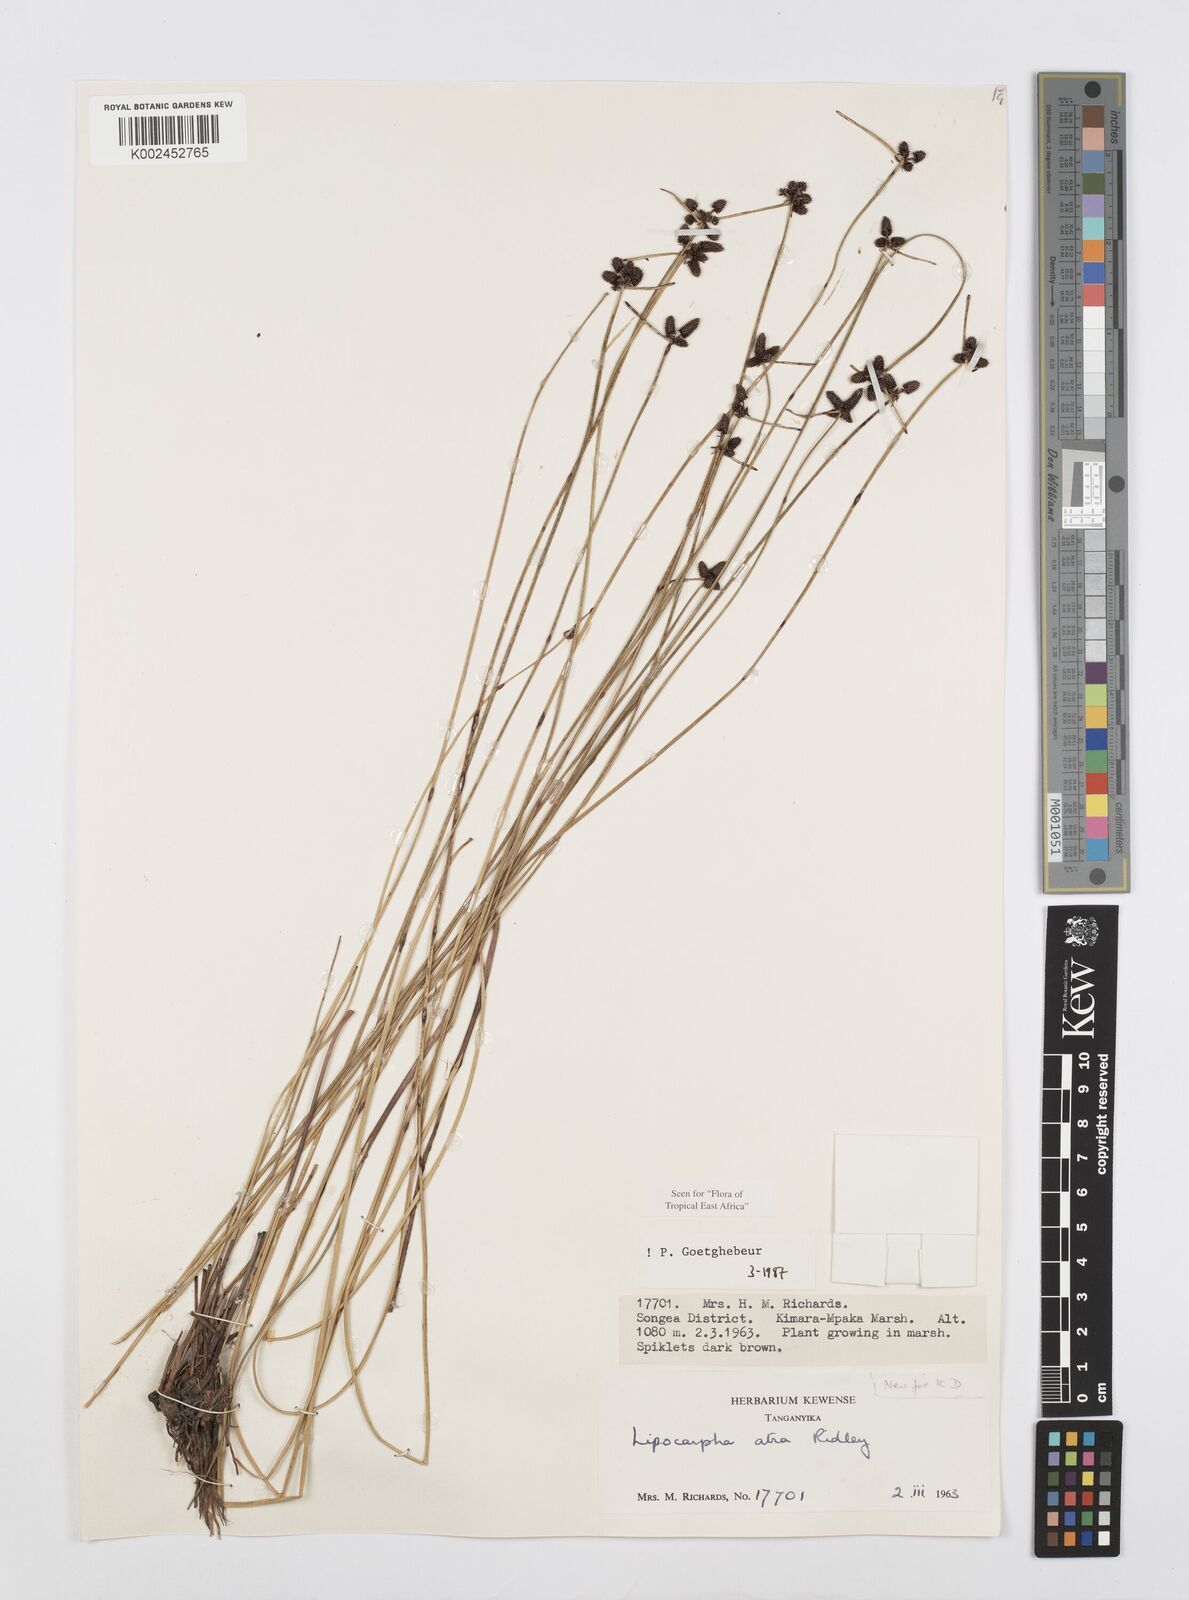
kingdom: Plantae
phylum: Tracheophyta
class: Liliopsida
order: Poales
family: Cyperaceae
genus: Cyperus
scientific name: Cyperus lipoater
